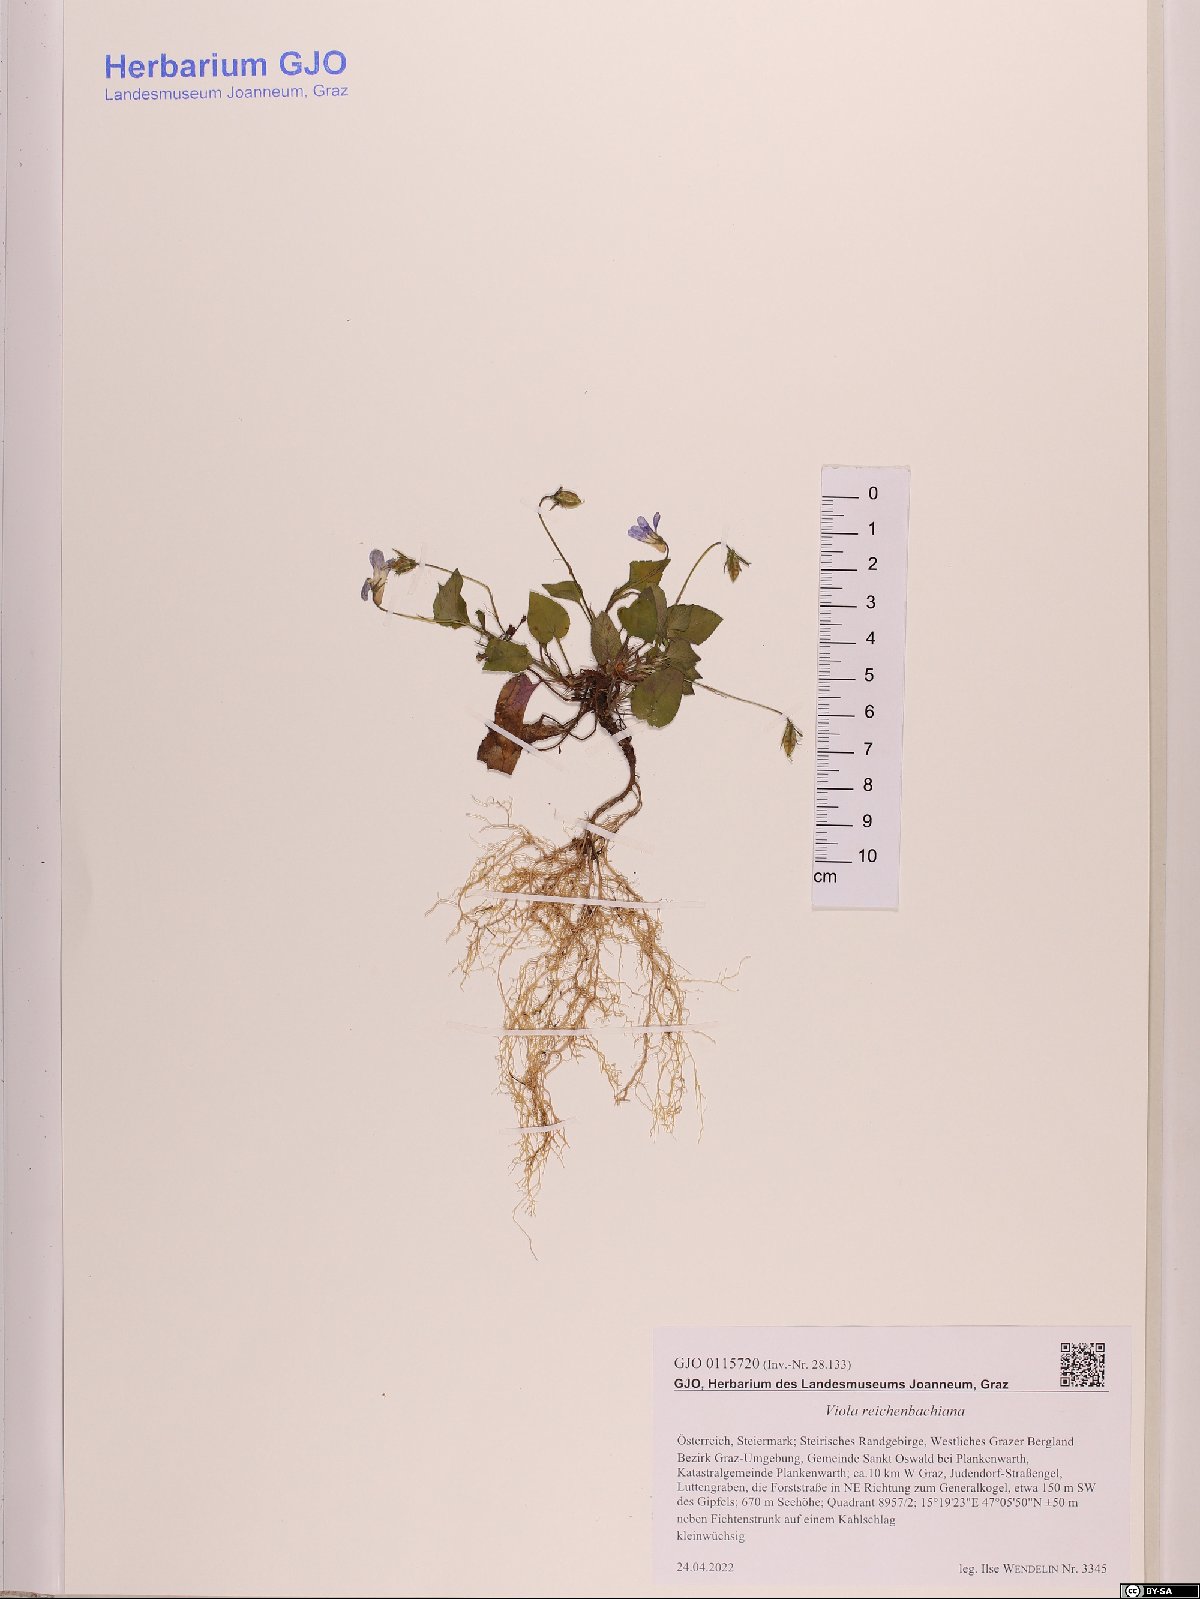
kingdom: Plantae
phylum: Tracheophyta
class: Magnoliopsida
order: Malpighiales
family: Violaceae
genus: Viola
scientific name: Viola reichenbachiana
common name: Early dog-violet
